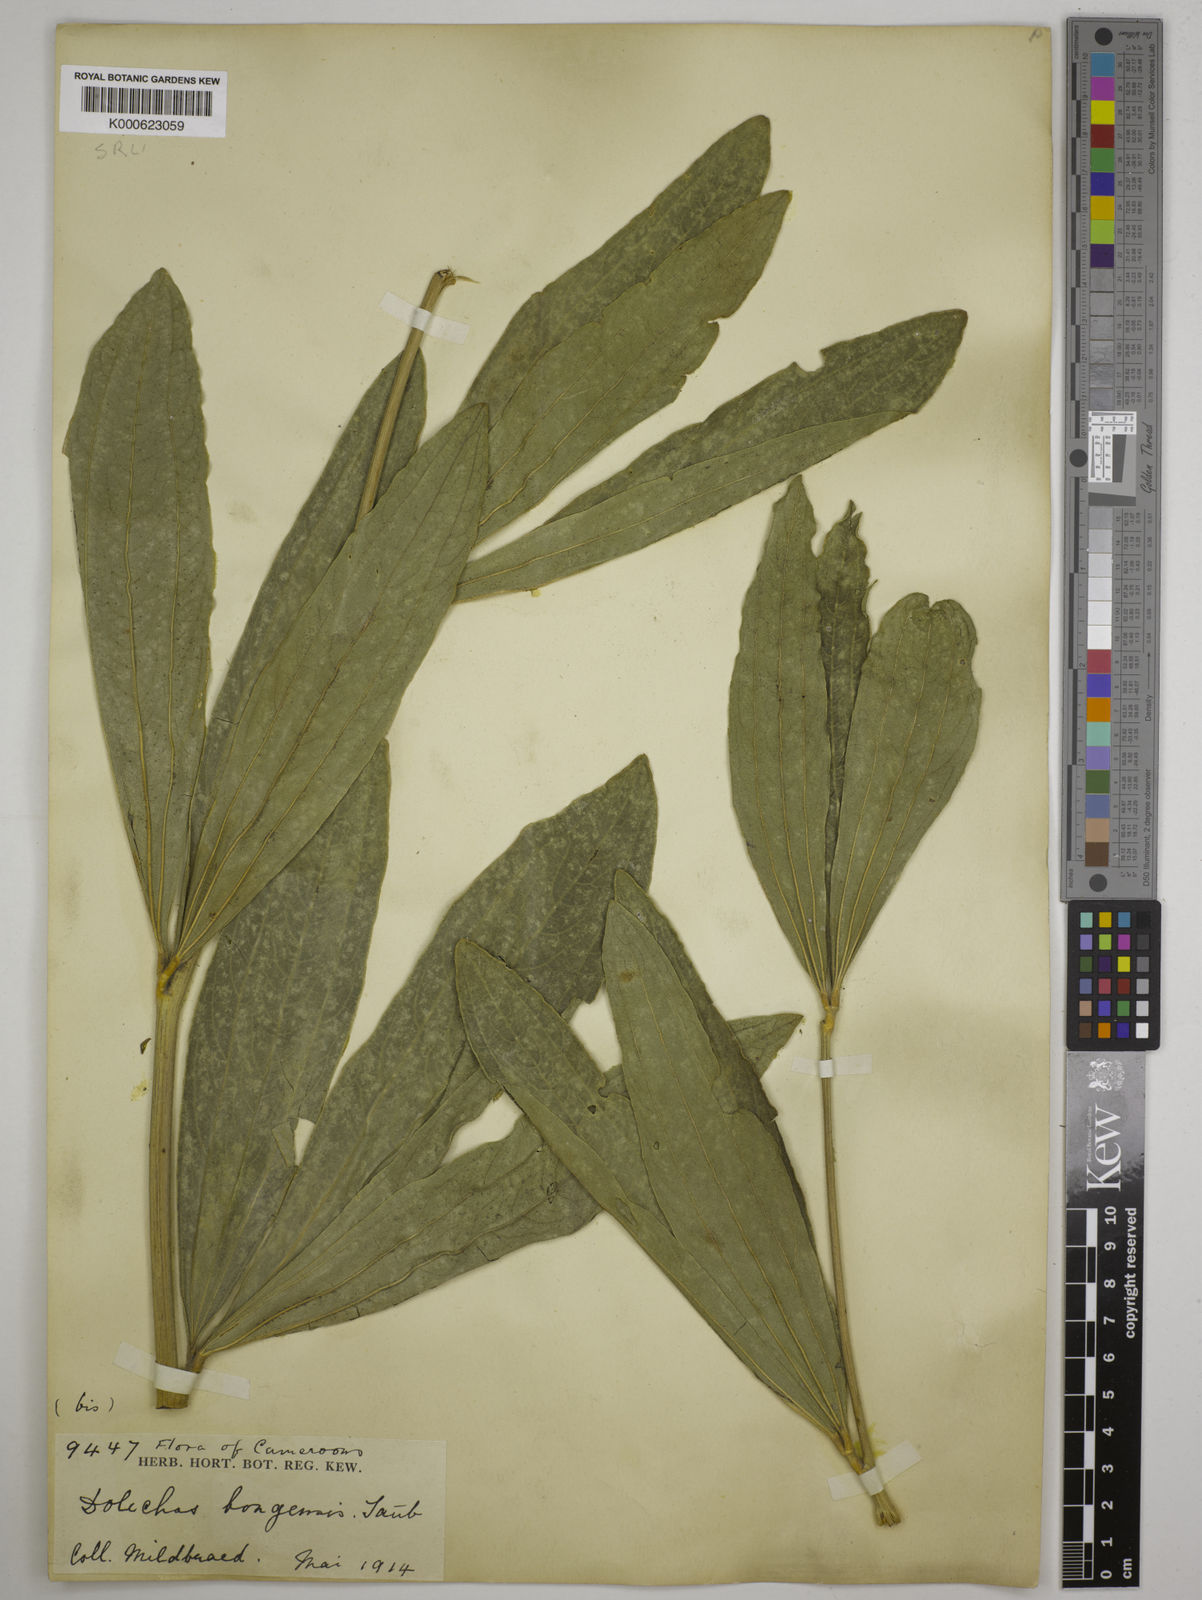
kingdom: Plantae
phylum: Tracheophyta
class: Magnoliopsida
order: Fabales
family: Fabaceae
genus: Dolichos
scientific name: Dolichos
